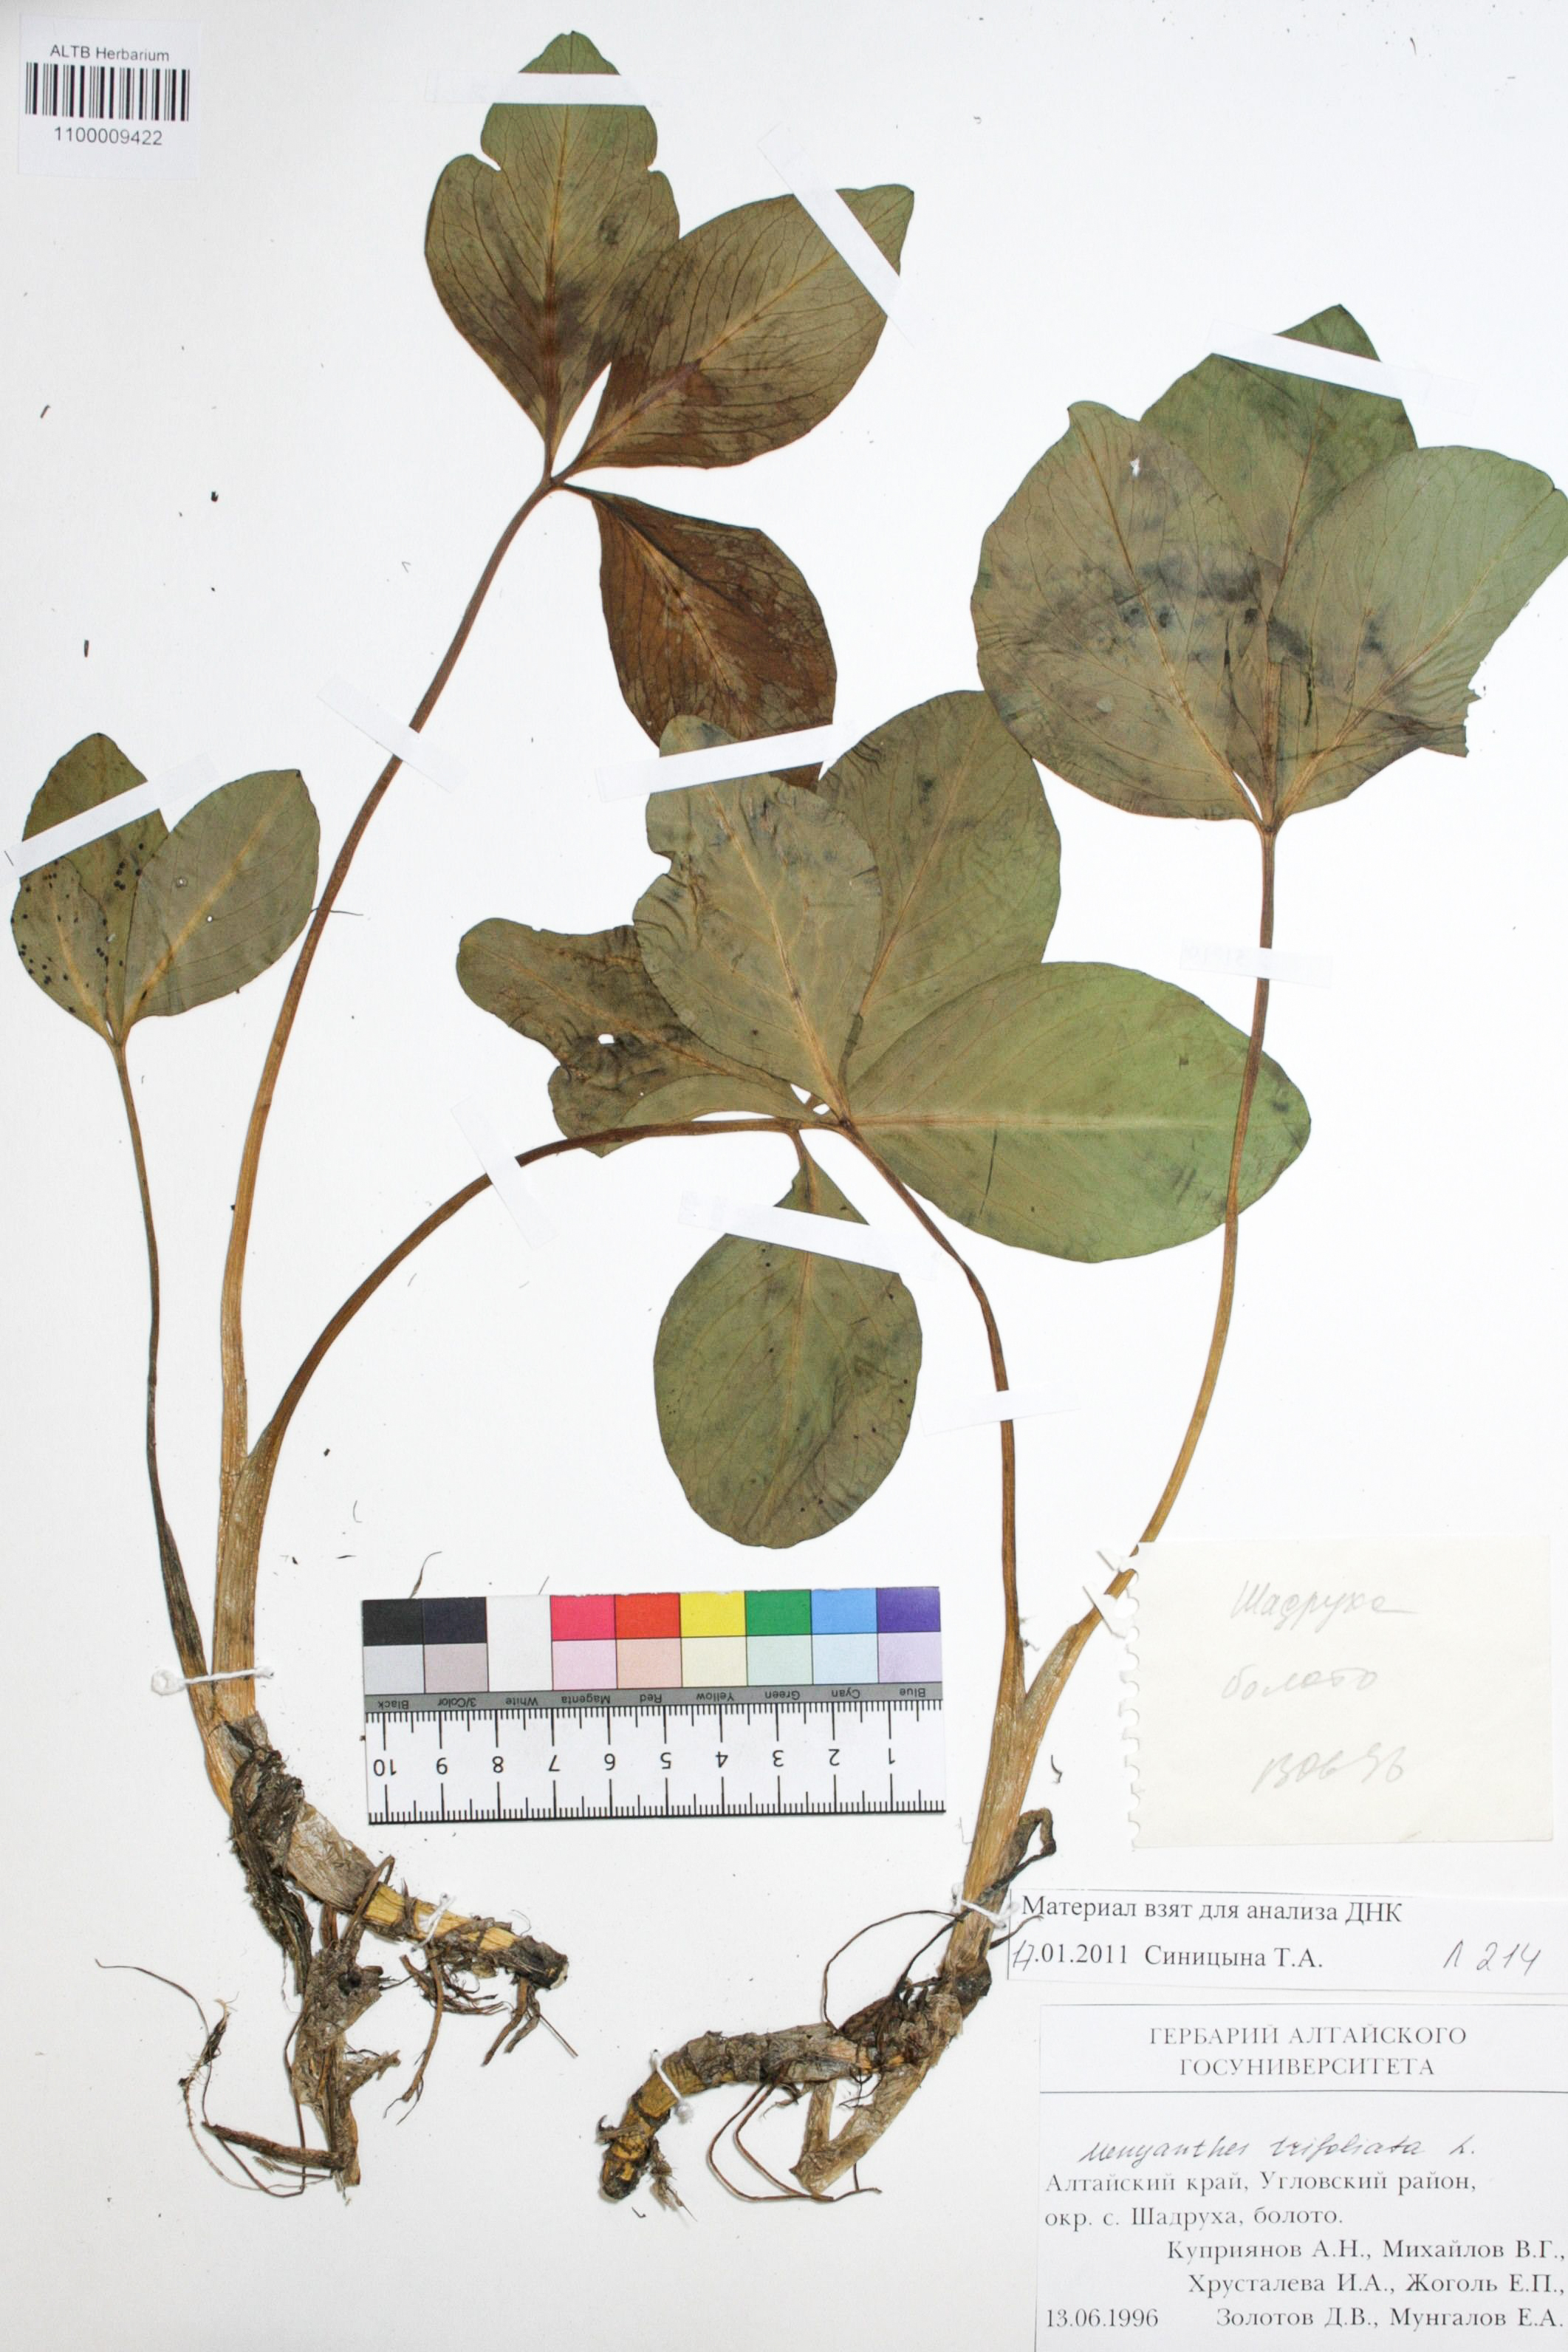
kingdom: Plantae
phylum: Tracheophyta
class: Magnoliopsida
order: Asterales
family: Menyanthaceae
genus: Menyanthes
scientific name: Menyanthes trifoliata
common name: Bogbean
